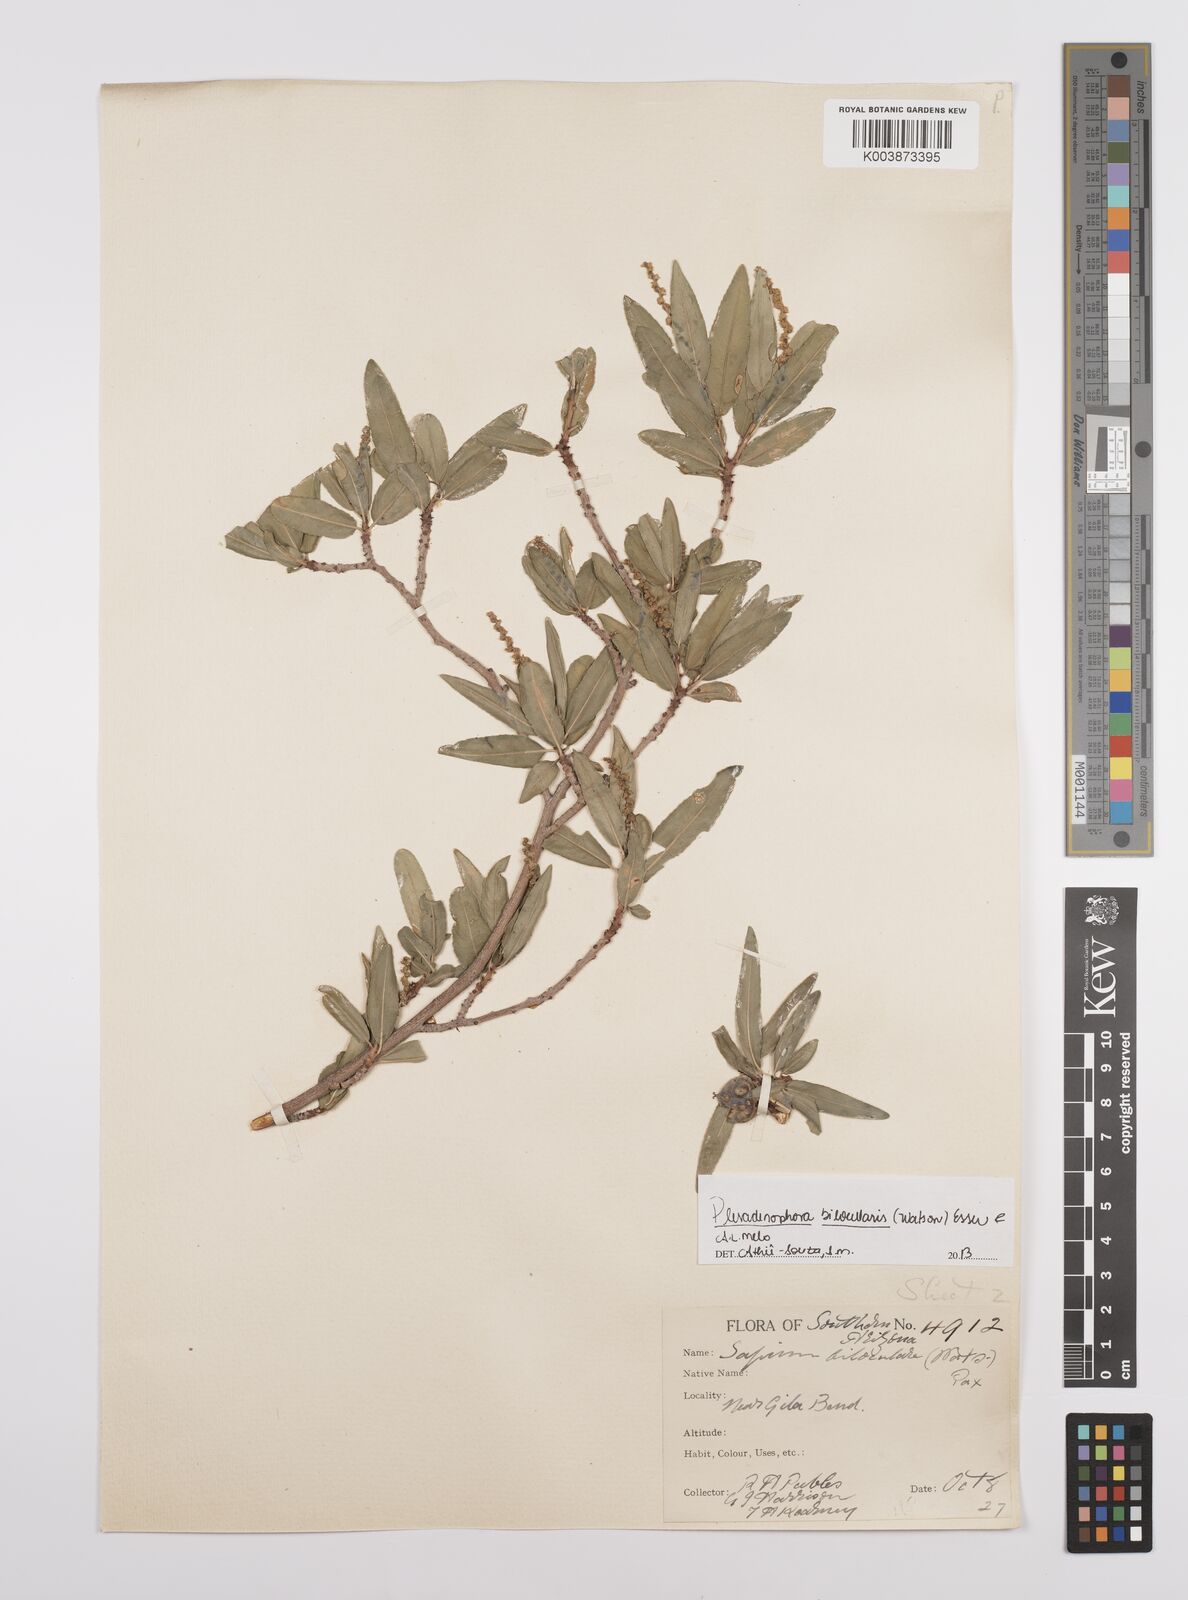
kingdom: Plantae
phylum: Tracheophyta
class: Magnoliopsida
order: Malpighiales
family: Euphorbiaceae
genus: Pleradenophora
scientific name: Pleradenophora bilocularis
